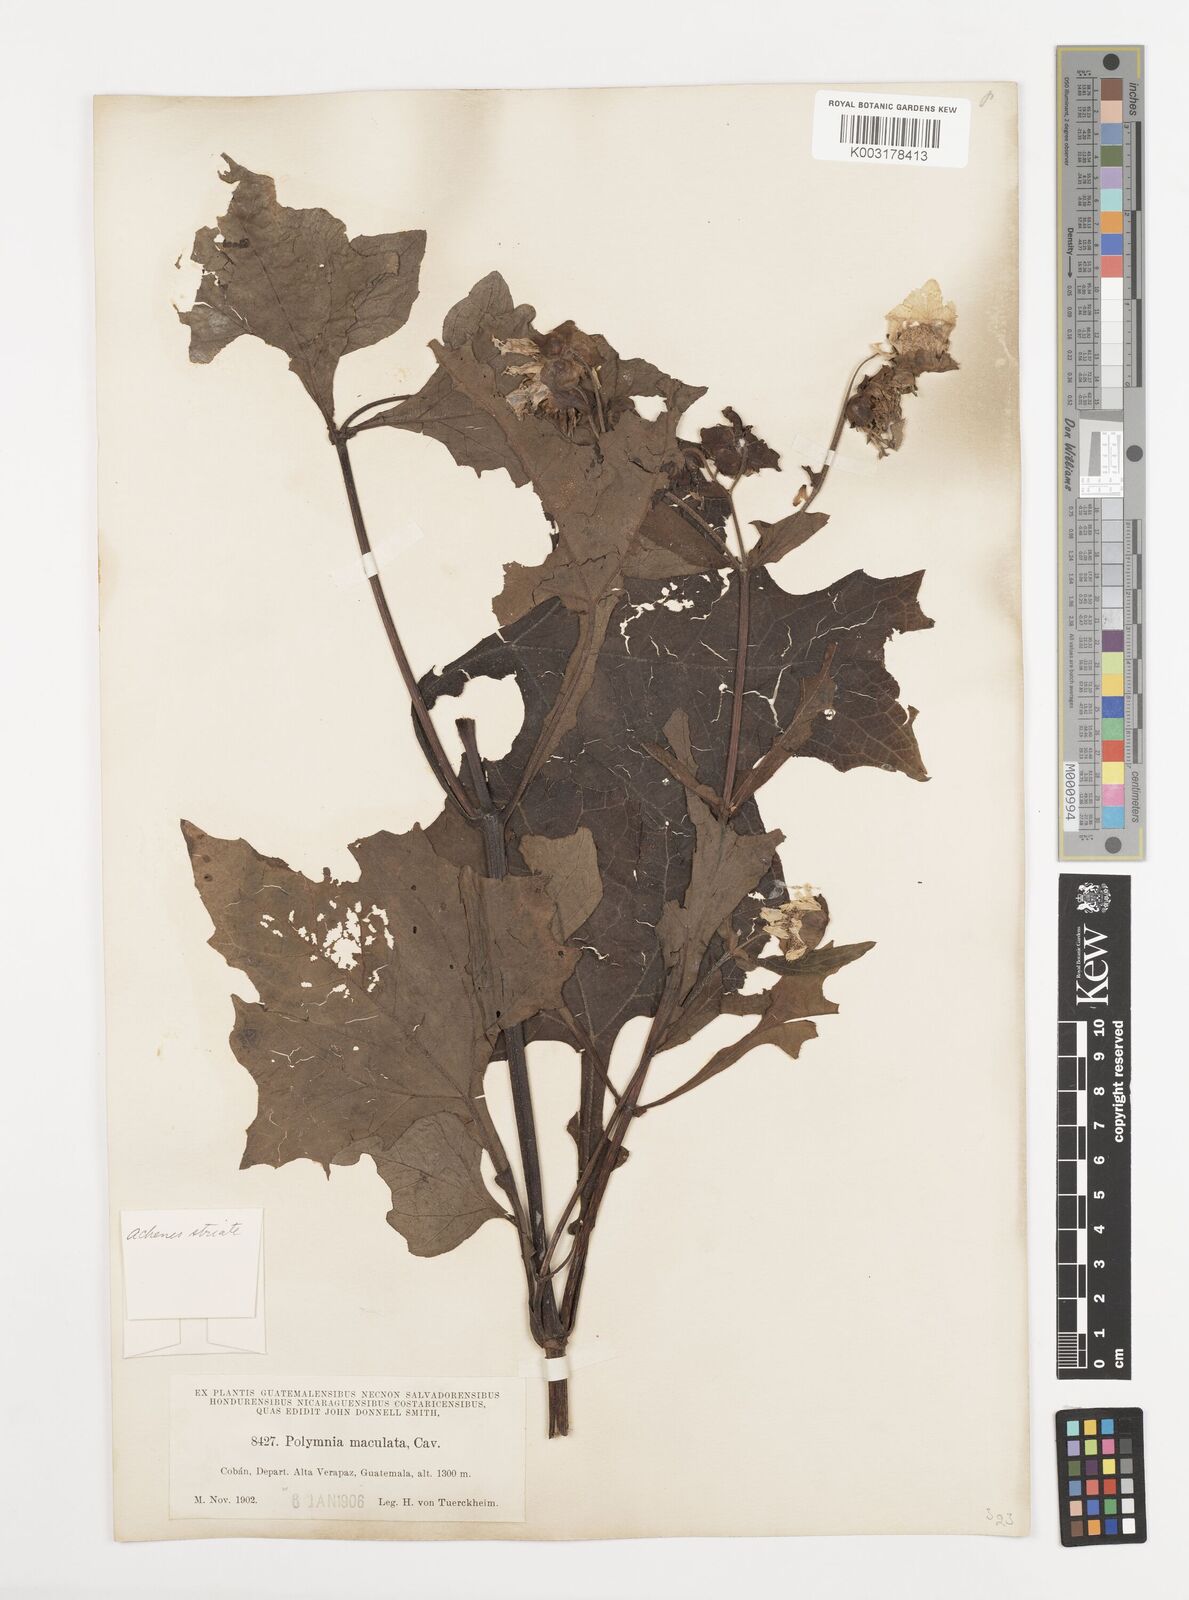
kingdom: Plantae
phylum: Tracheophyta
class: Magnoliopsida
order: Asterales
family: Asteraceae
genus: Smallanthus
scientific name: Smallanthus maculatus
